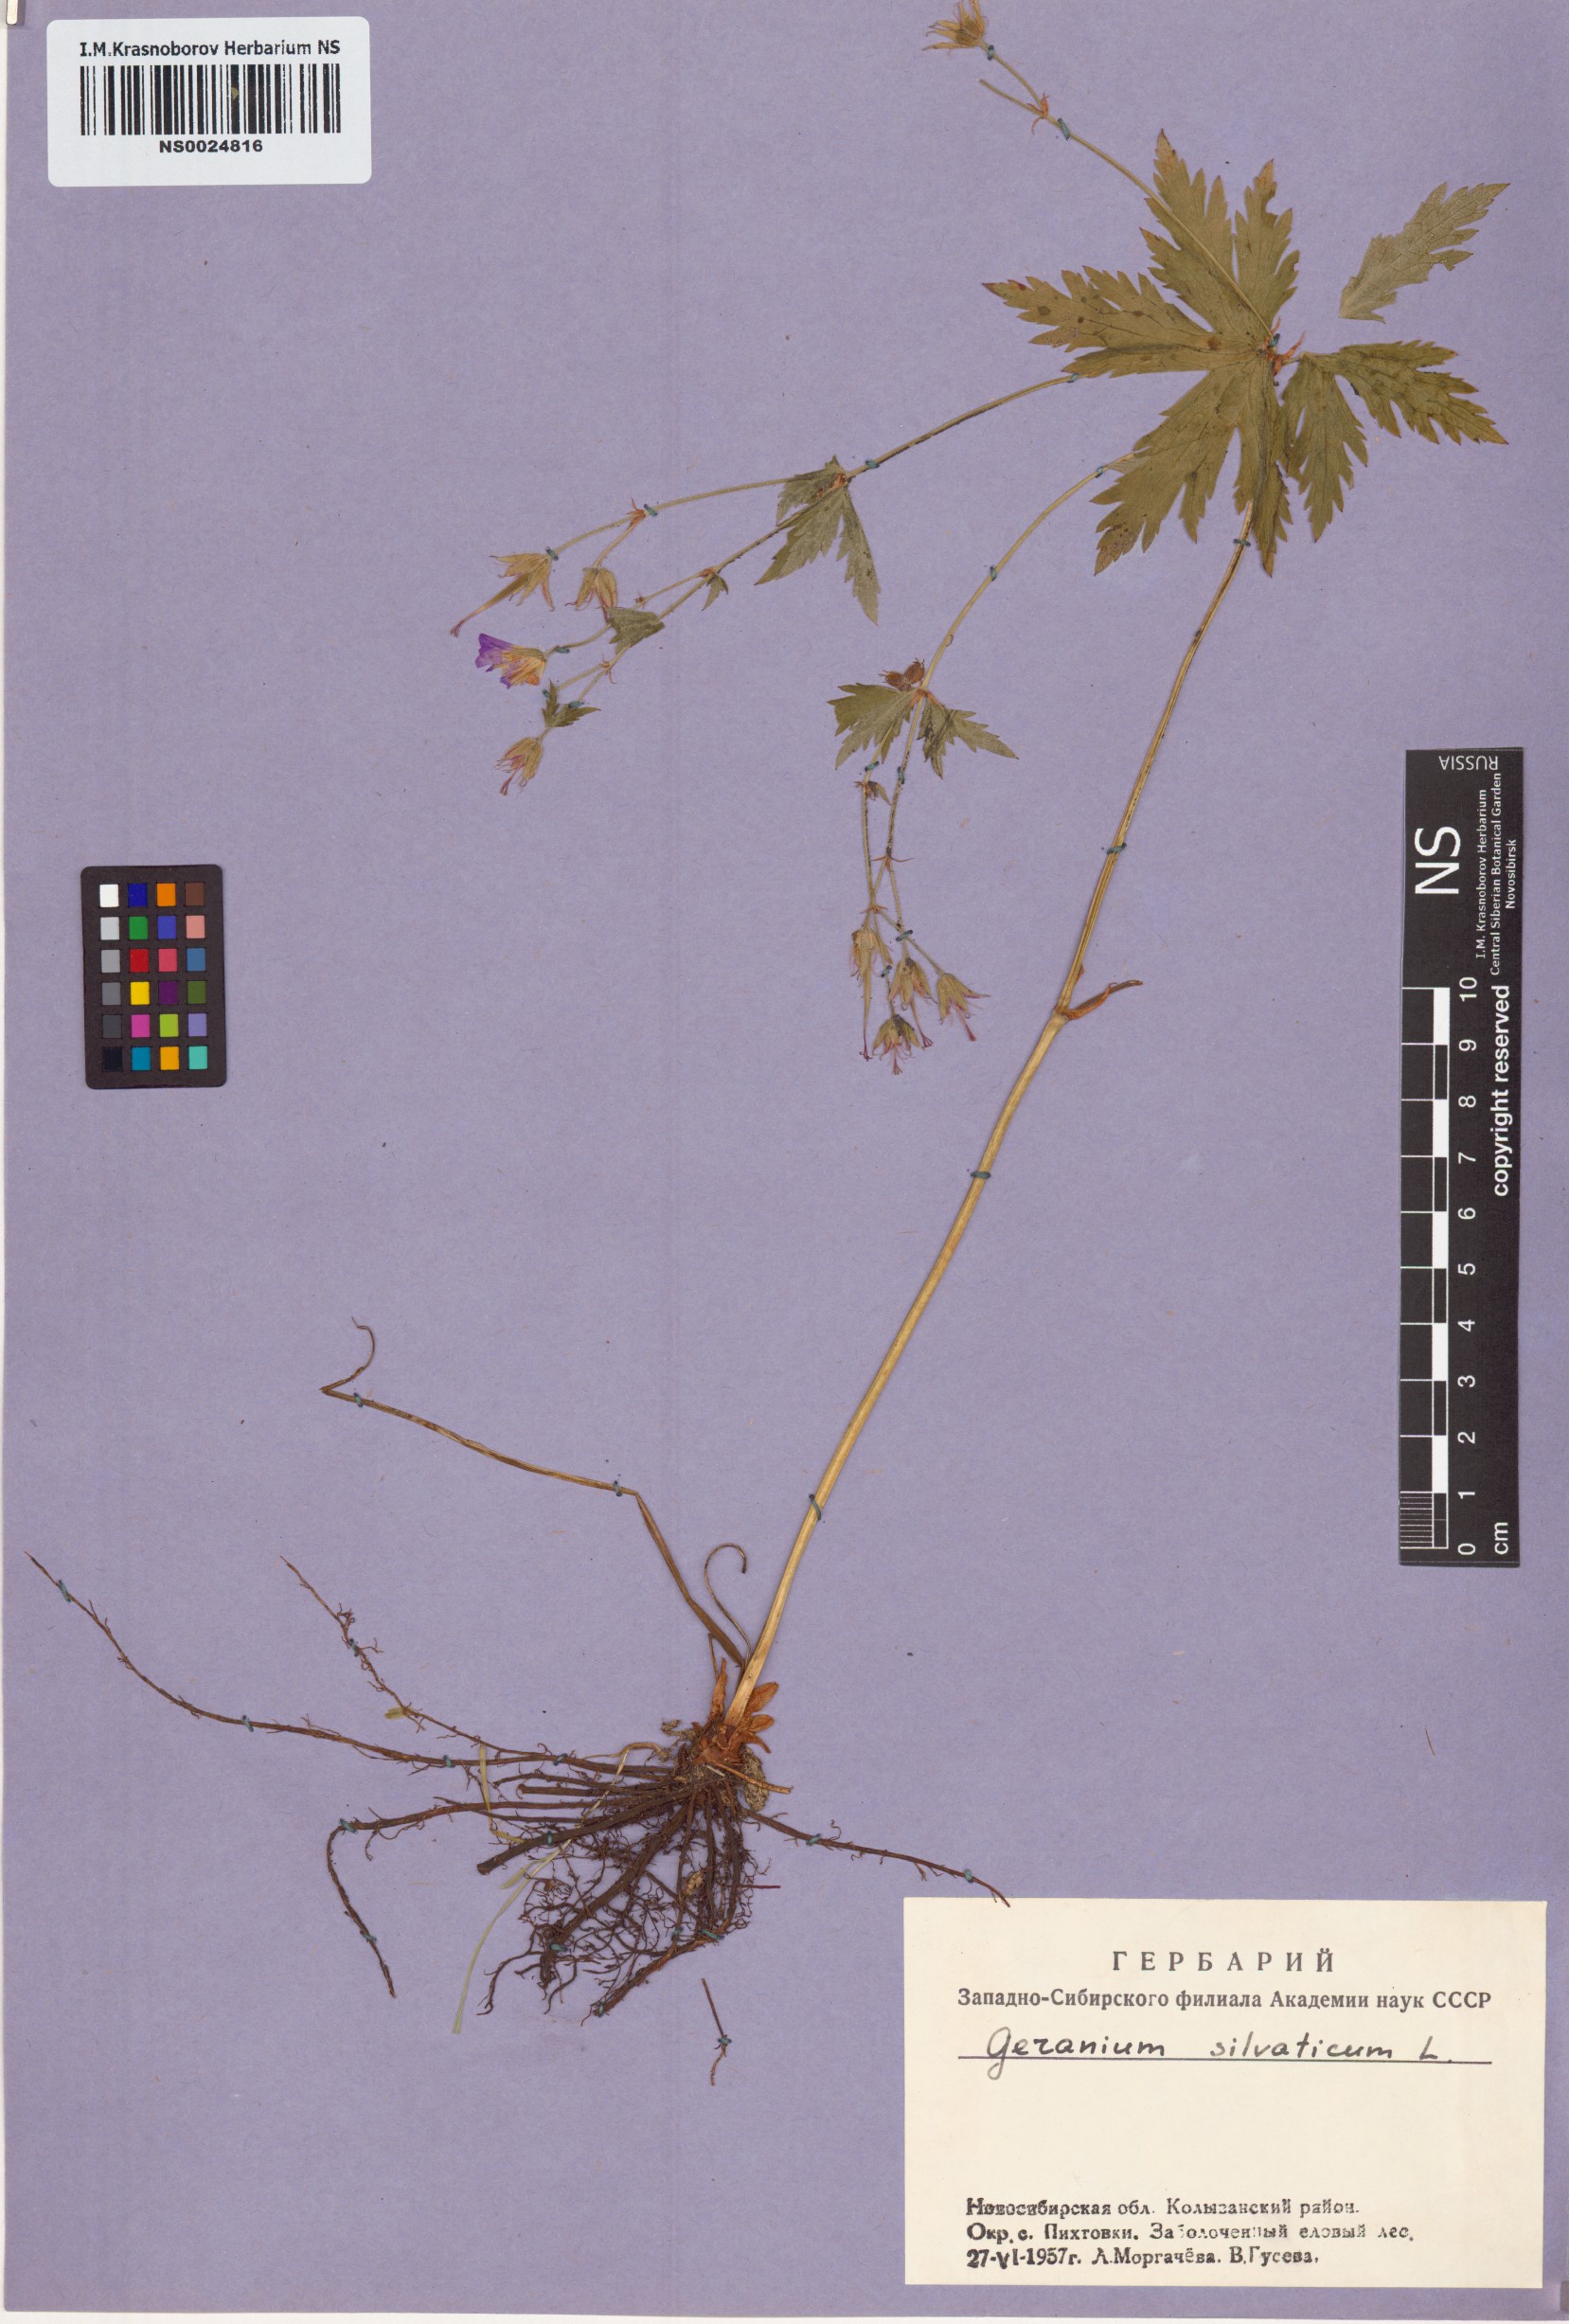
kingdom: Plantae
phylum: Tracheophyta
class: Magnoliopsida
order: Geraniales
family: Geraniaceae
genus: Geranium
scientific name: Geranium sylvaticum
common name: Wood crane's-bill
